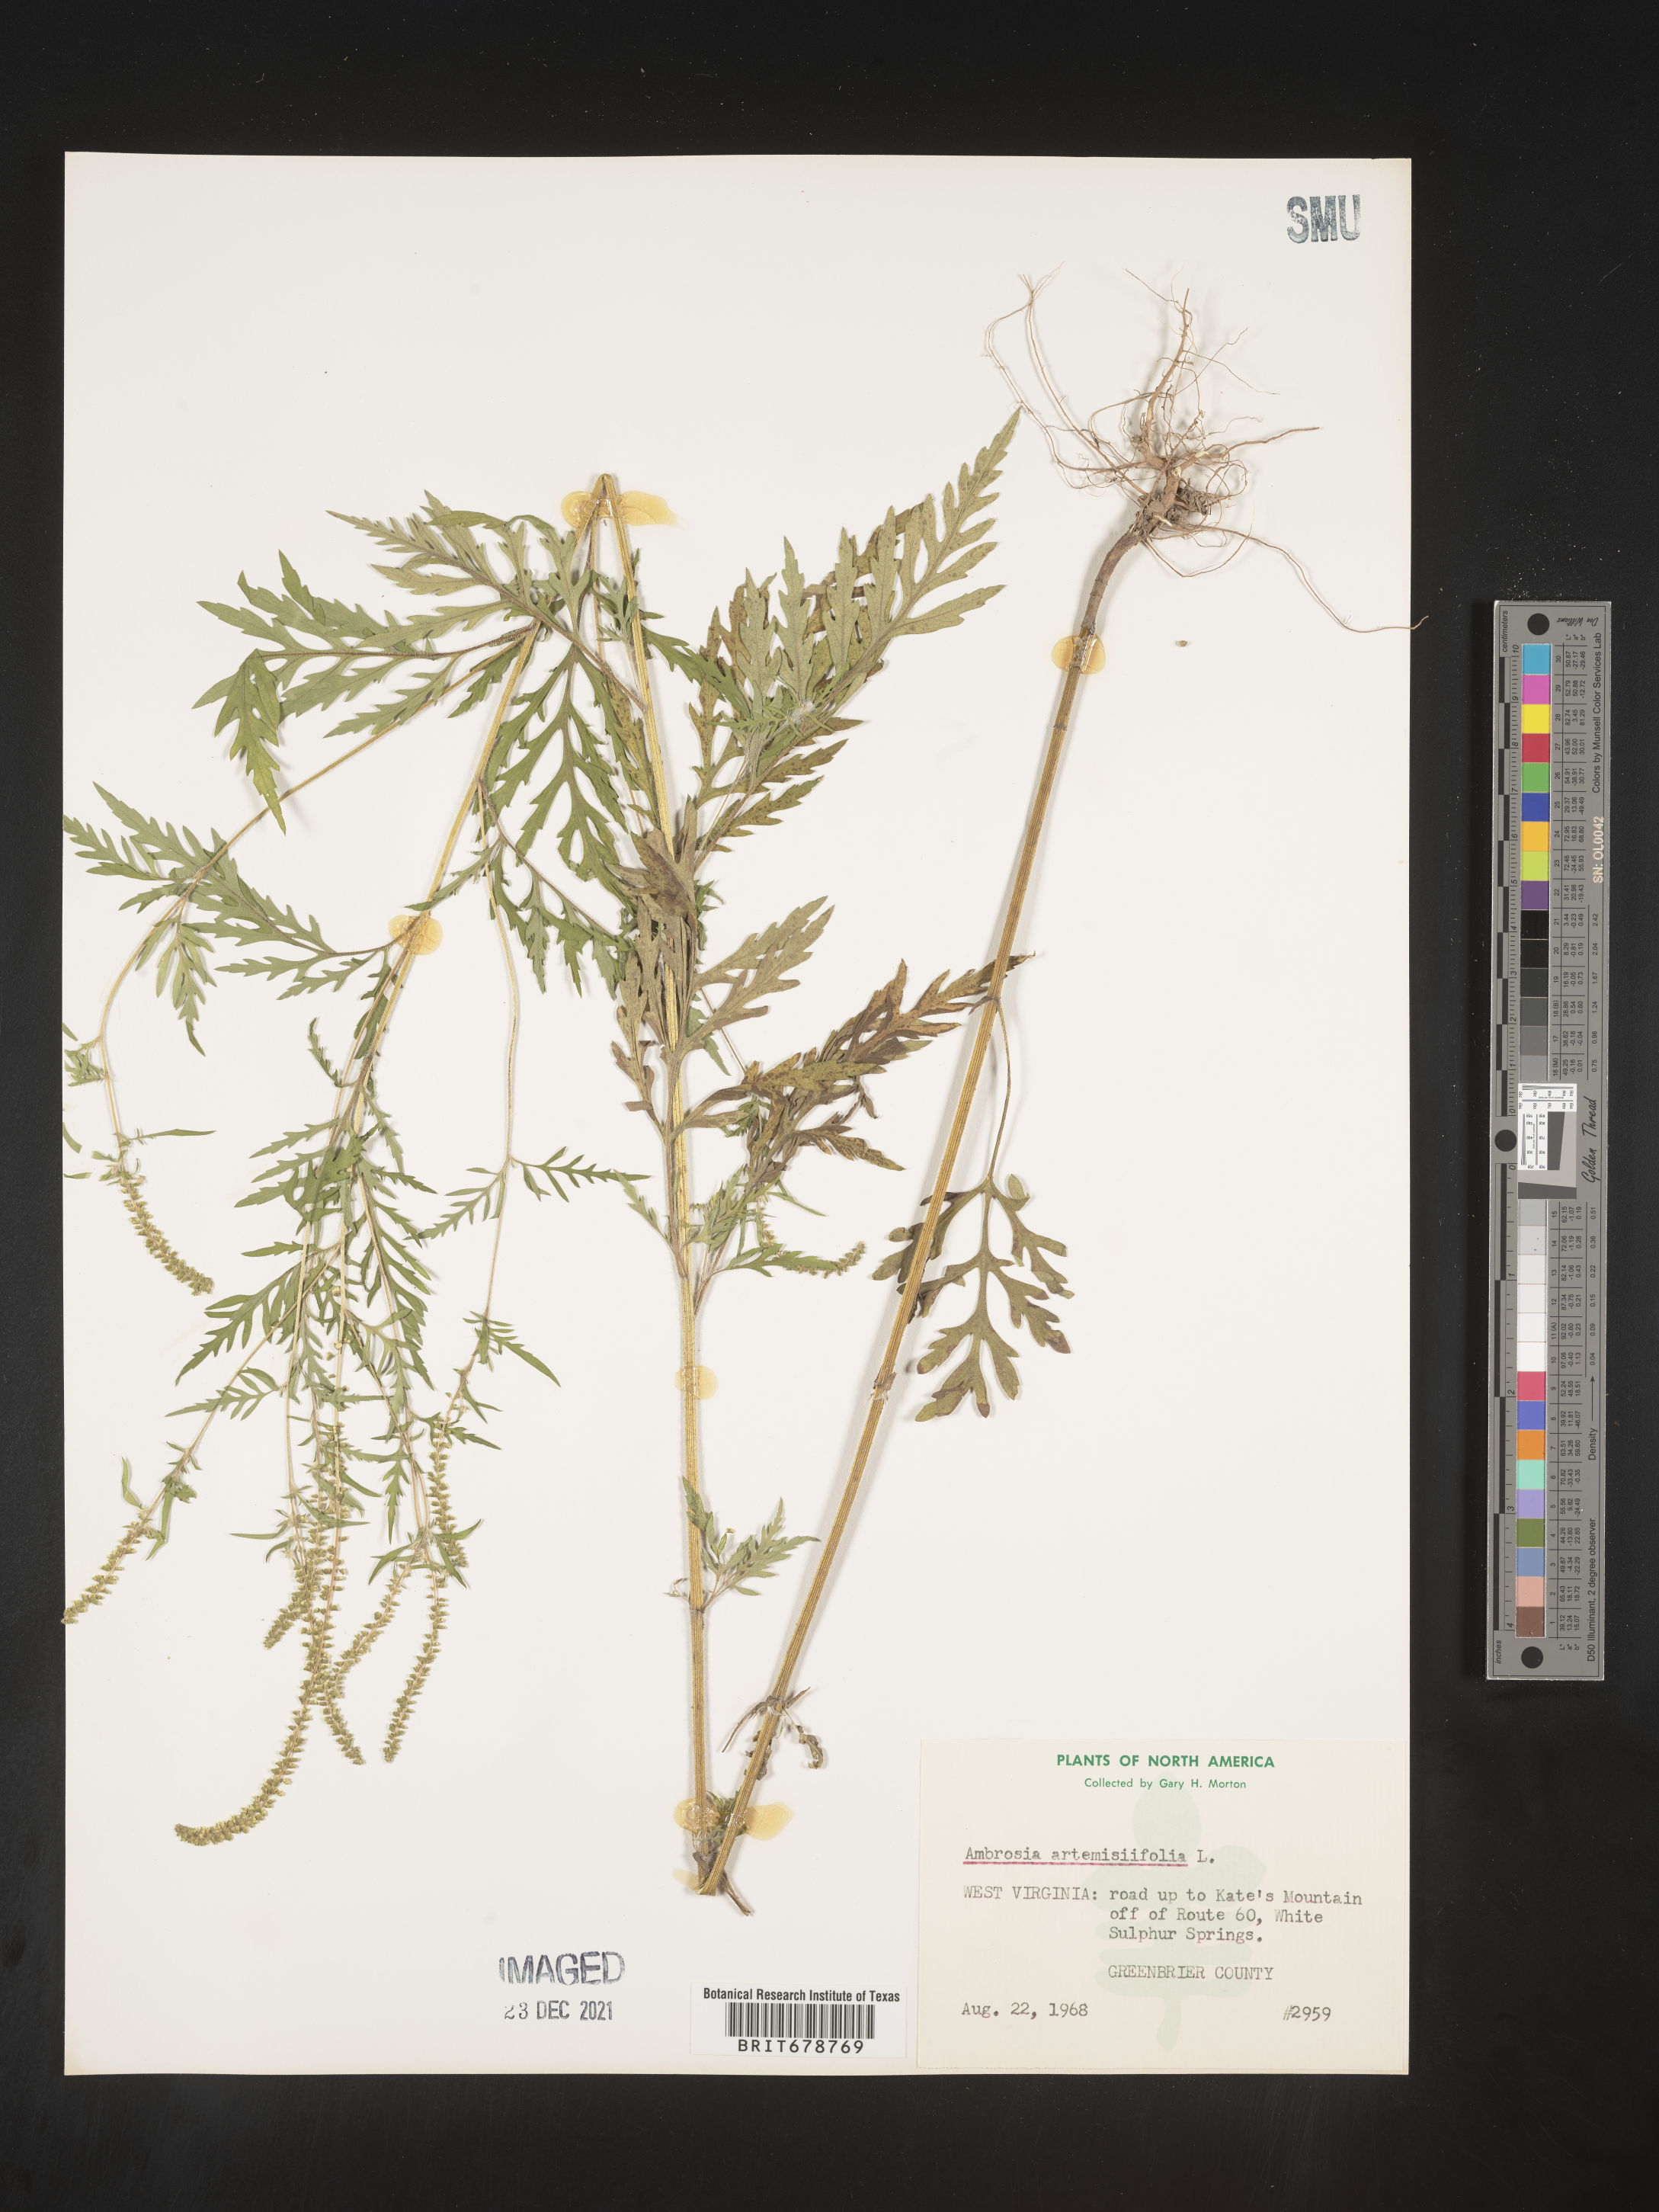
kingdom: Plantae
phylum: Tracheophyta
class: Magnoliopsida
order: Asterales
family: Asteraceae
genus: Ambrosia
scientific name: Ambrosia artemisiifolia
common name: Annual ragweed
